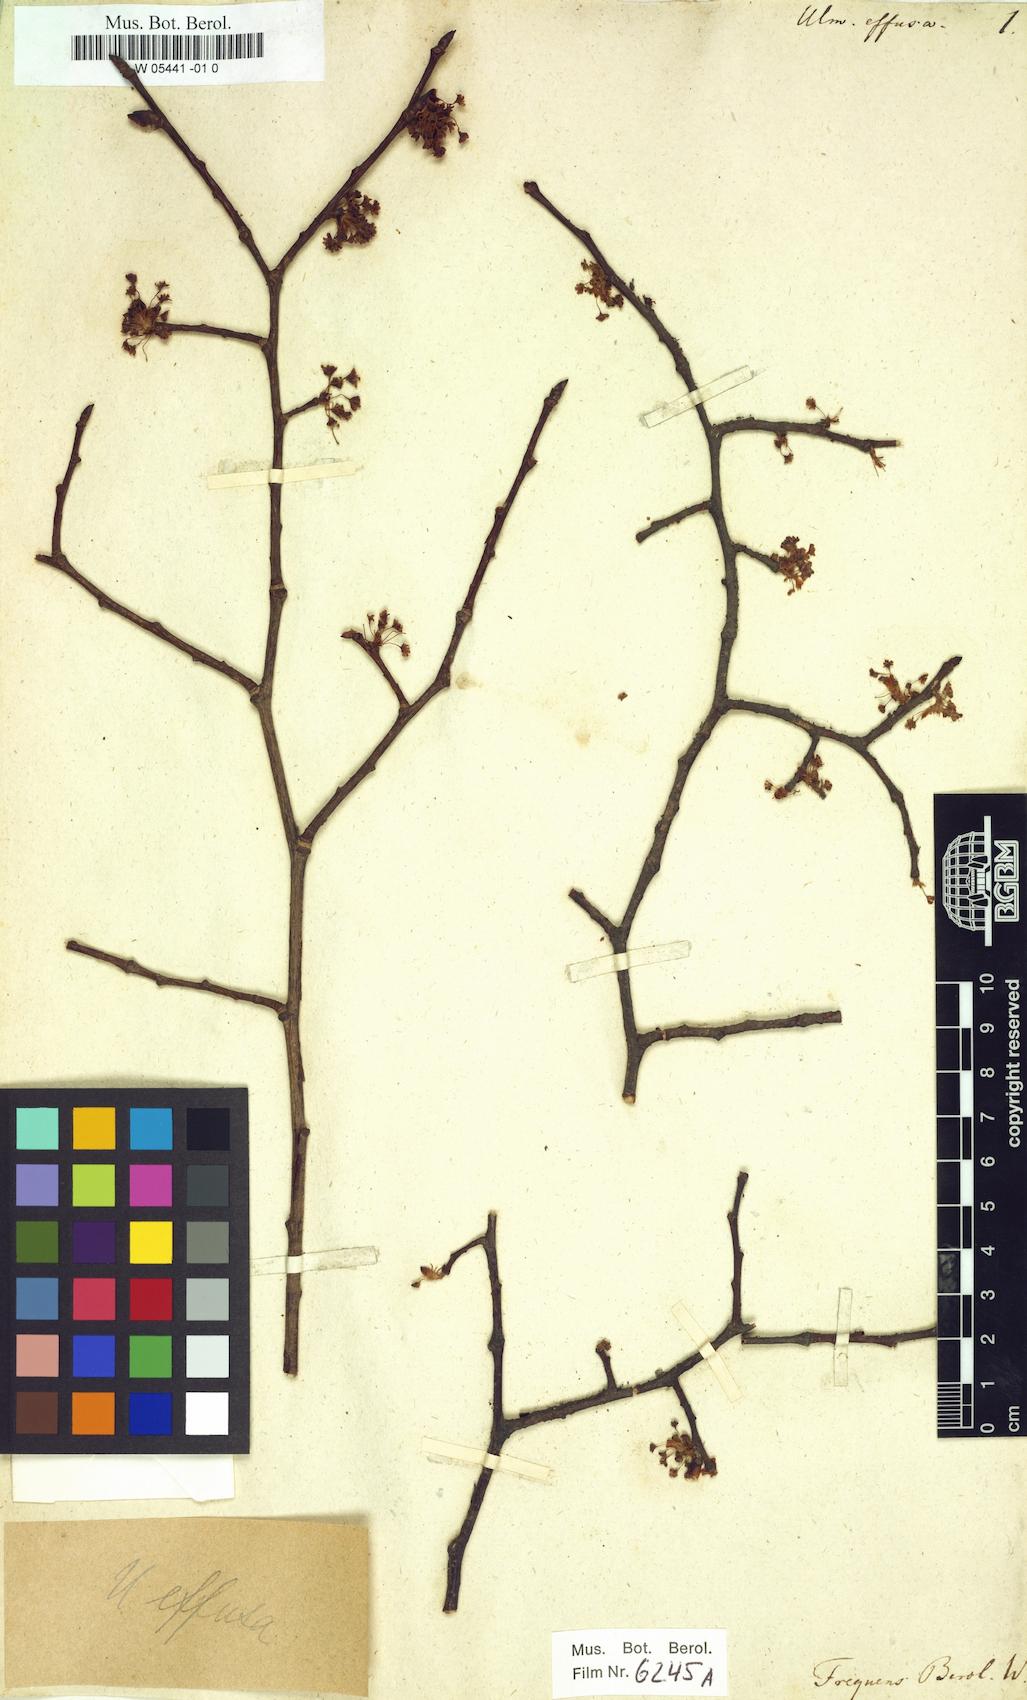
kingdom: Plantae
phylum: Tracheophyta
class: Magnoliopsida
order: Rosales
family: Ulmaceae
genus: Ulmus
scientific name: Ulmus effusa
